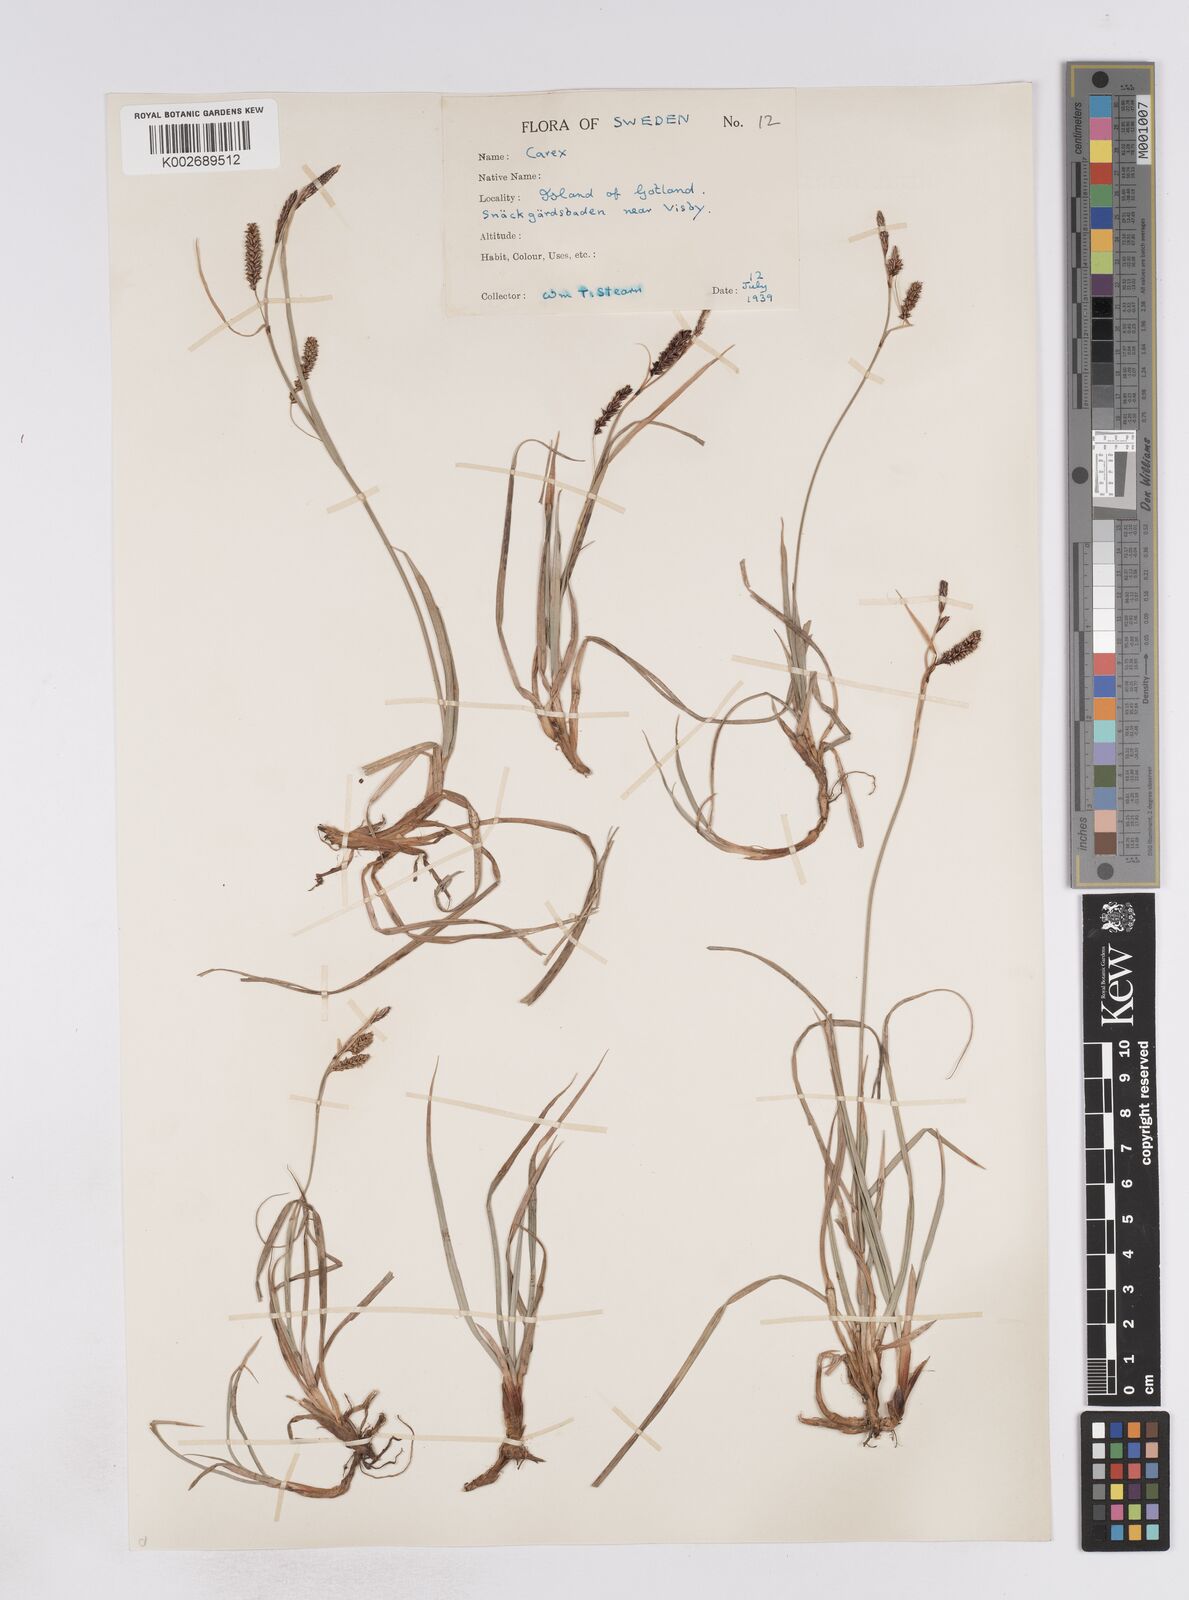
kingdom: Plantae
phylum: Tracheophyta
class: Liliopsida
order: Poales
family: Cyperaceae
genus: Carex
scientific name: Carex flacca
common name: Glaucous sedge
